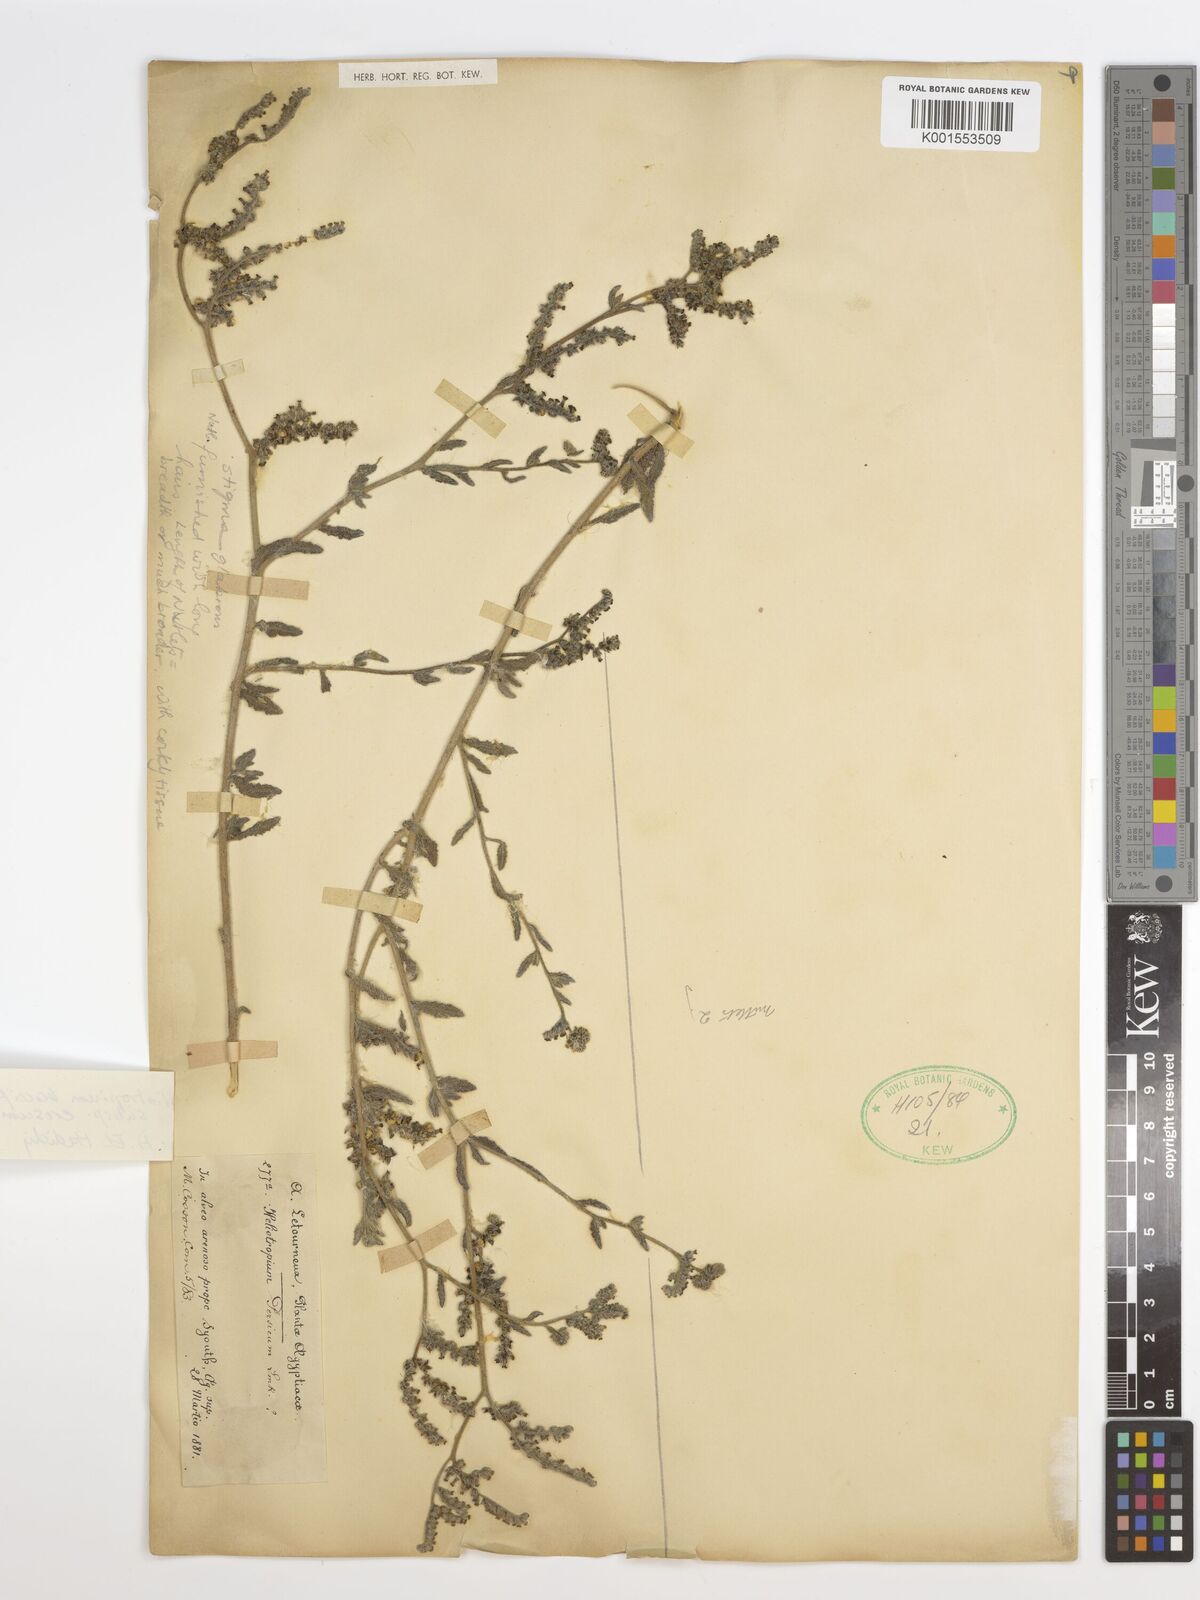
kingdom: Plantae
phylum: Tracheophyta
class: Magnoliopsida
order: Boraginales
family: Heliotropiaceae
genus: Heliotropium
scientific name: Heliotropium crispum
